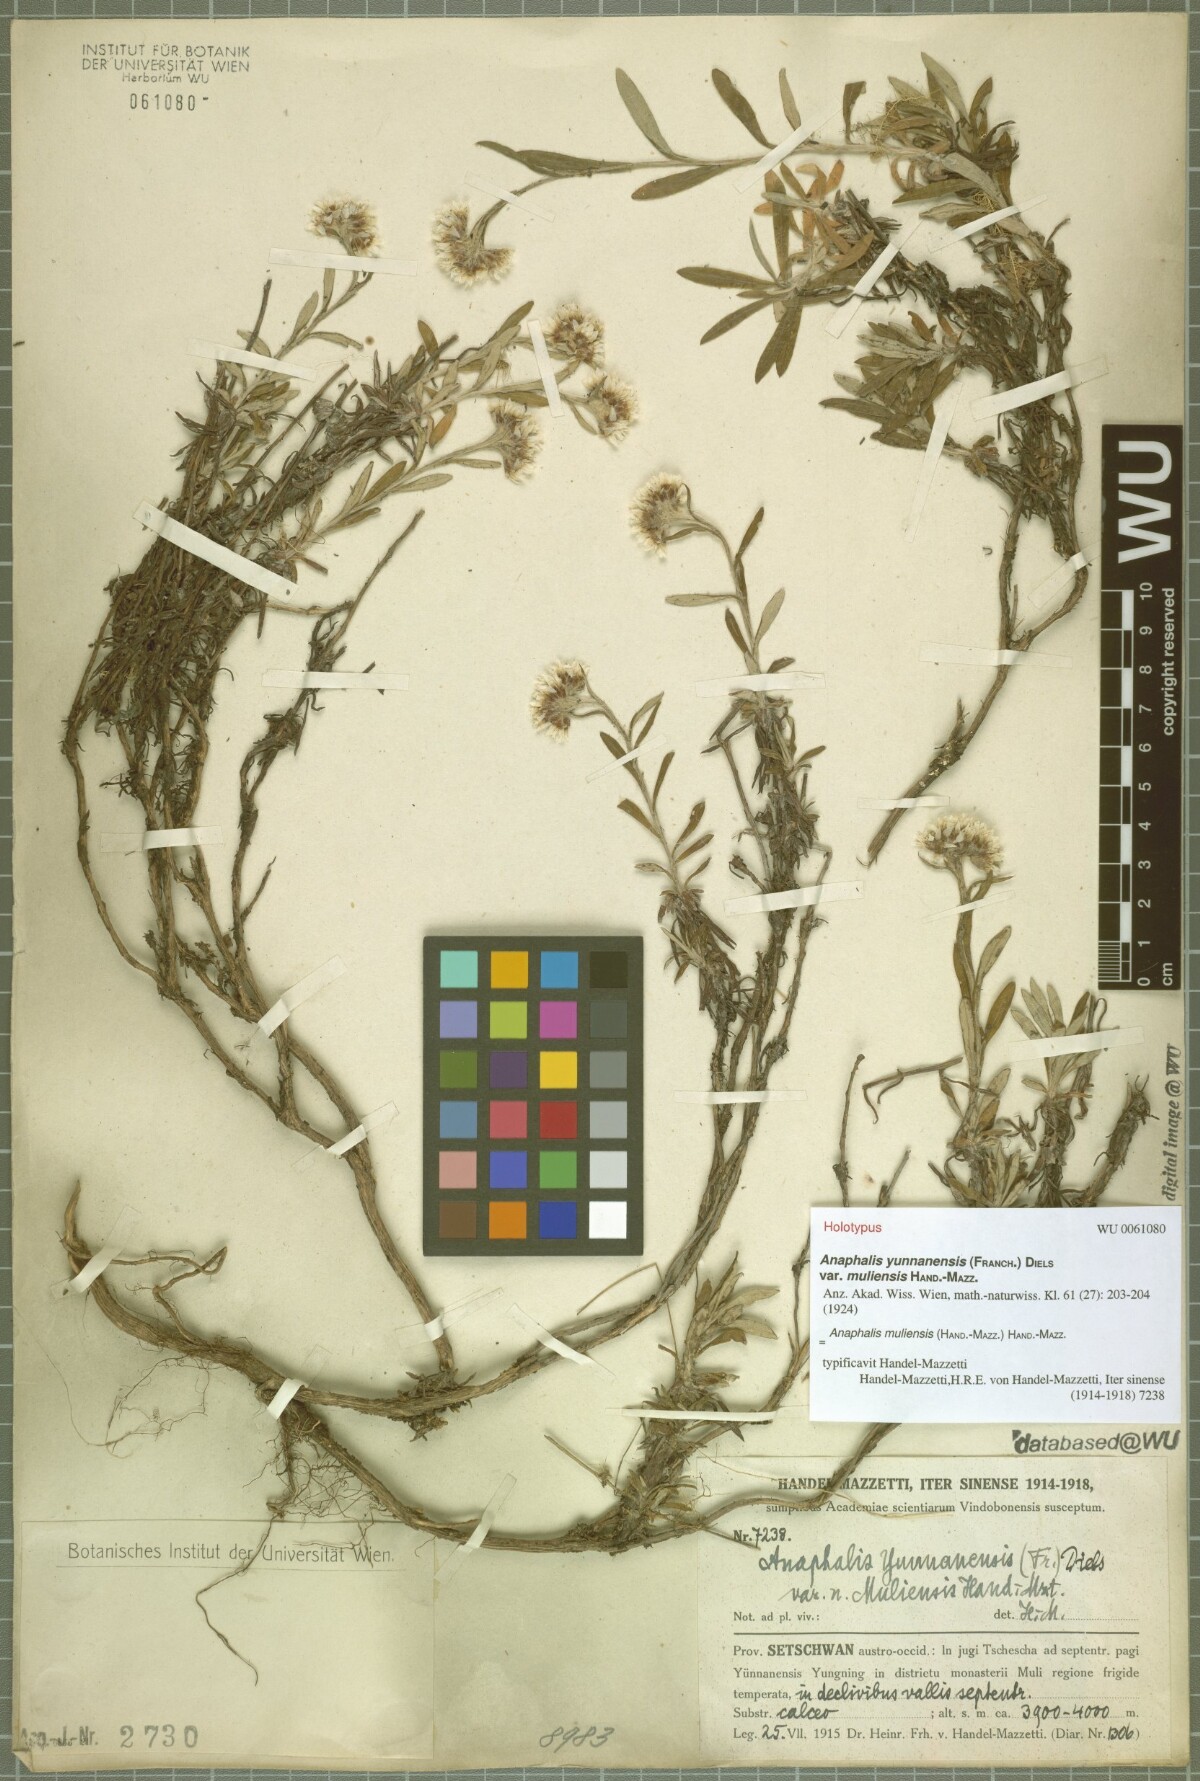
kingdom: Plantae
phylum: Tracheophyta
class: Magnoliopsida
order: Asterales
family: Asteraceae
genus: Anaphalis
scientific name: Anaphalis yunnanensis
